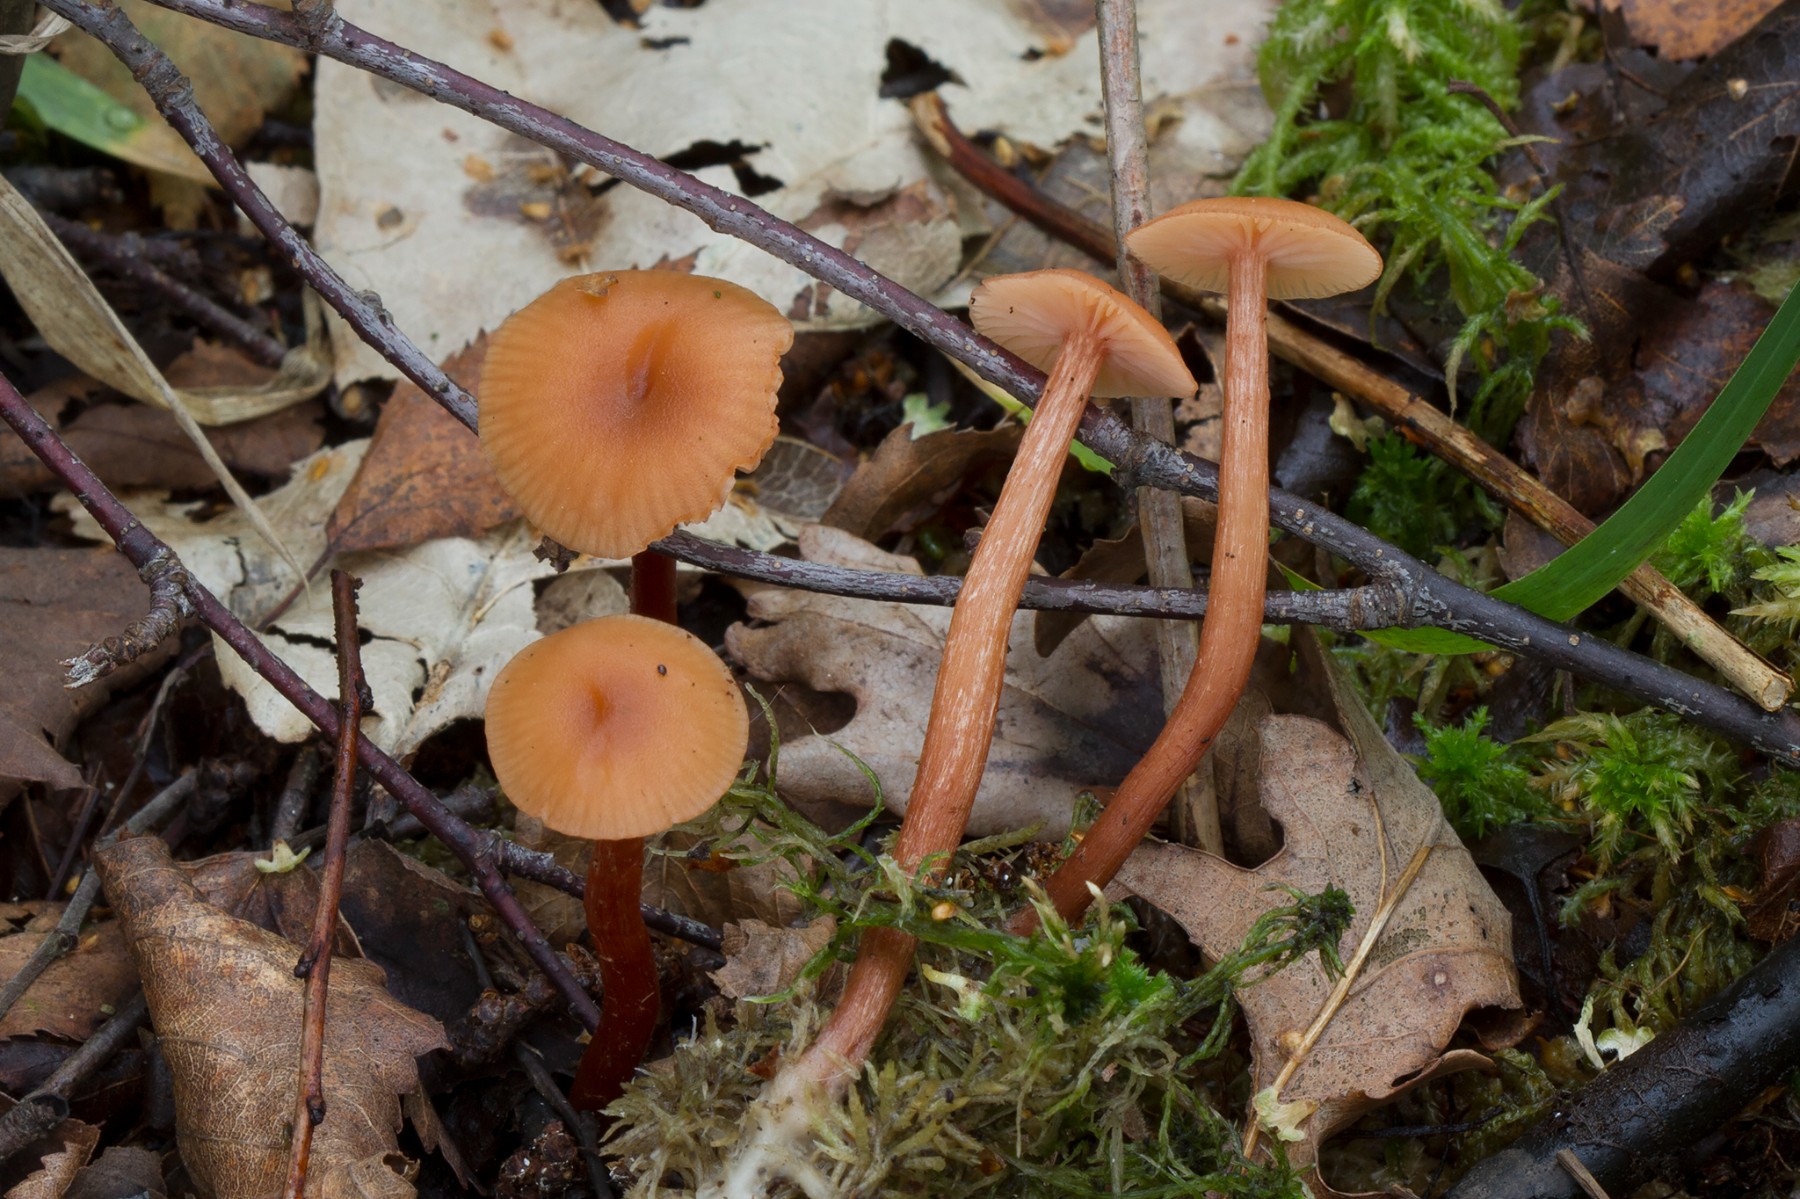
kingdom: Fungi
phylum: Basidiomycota
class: Agaricomycetes
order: Agaricales
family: Hydnangiaceae
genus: Laccaria
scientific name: Laccaria laccata
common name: rød ametysthat
